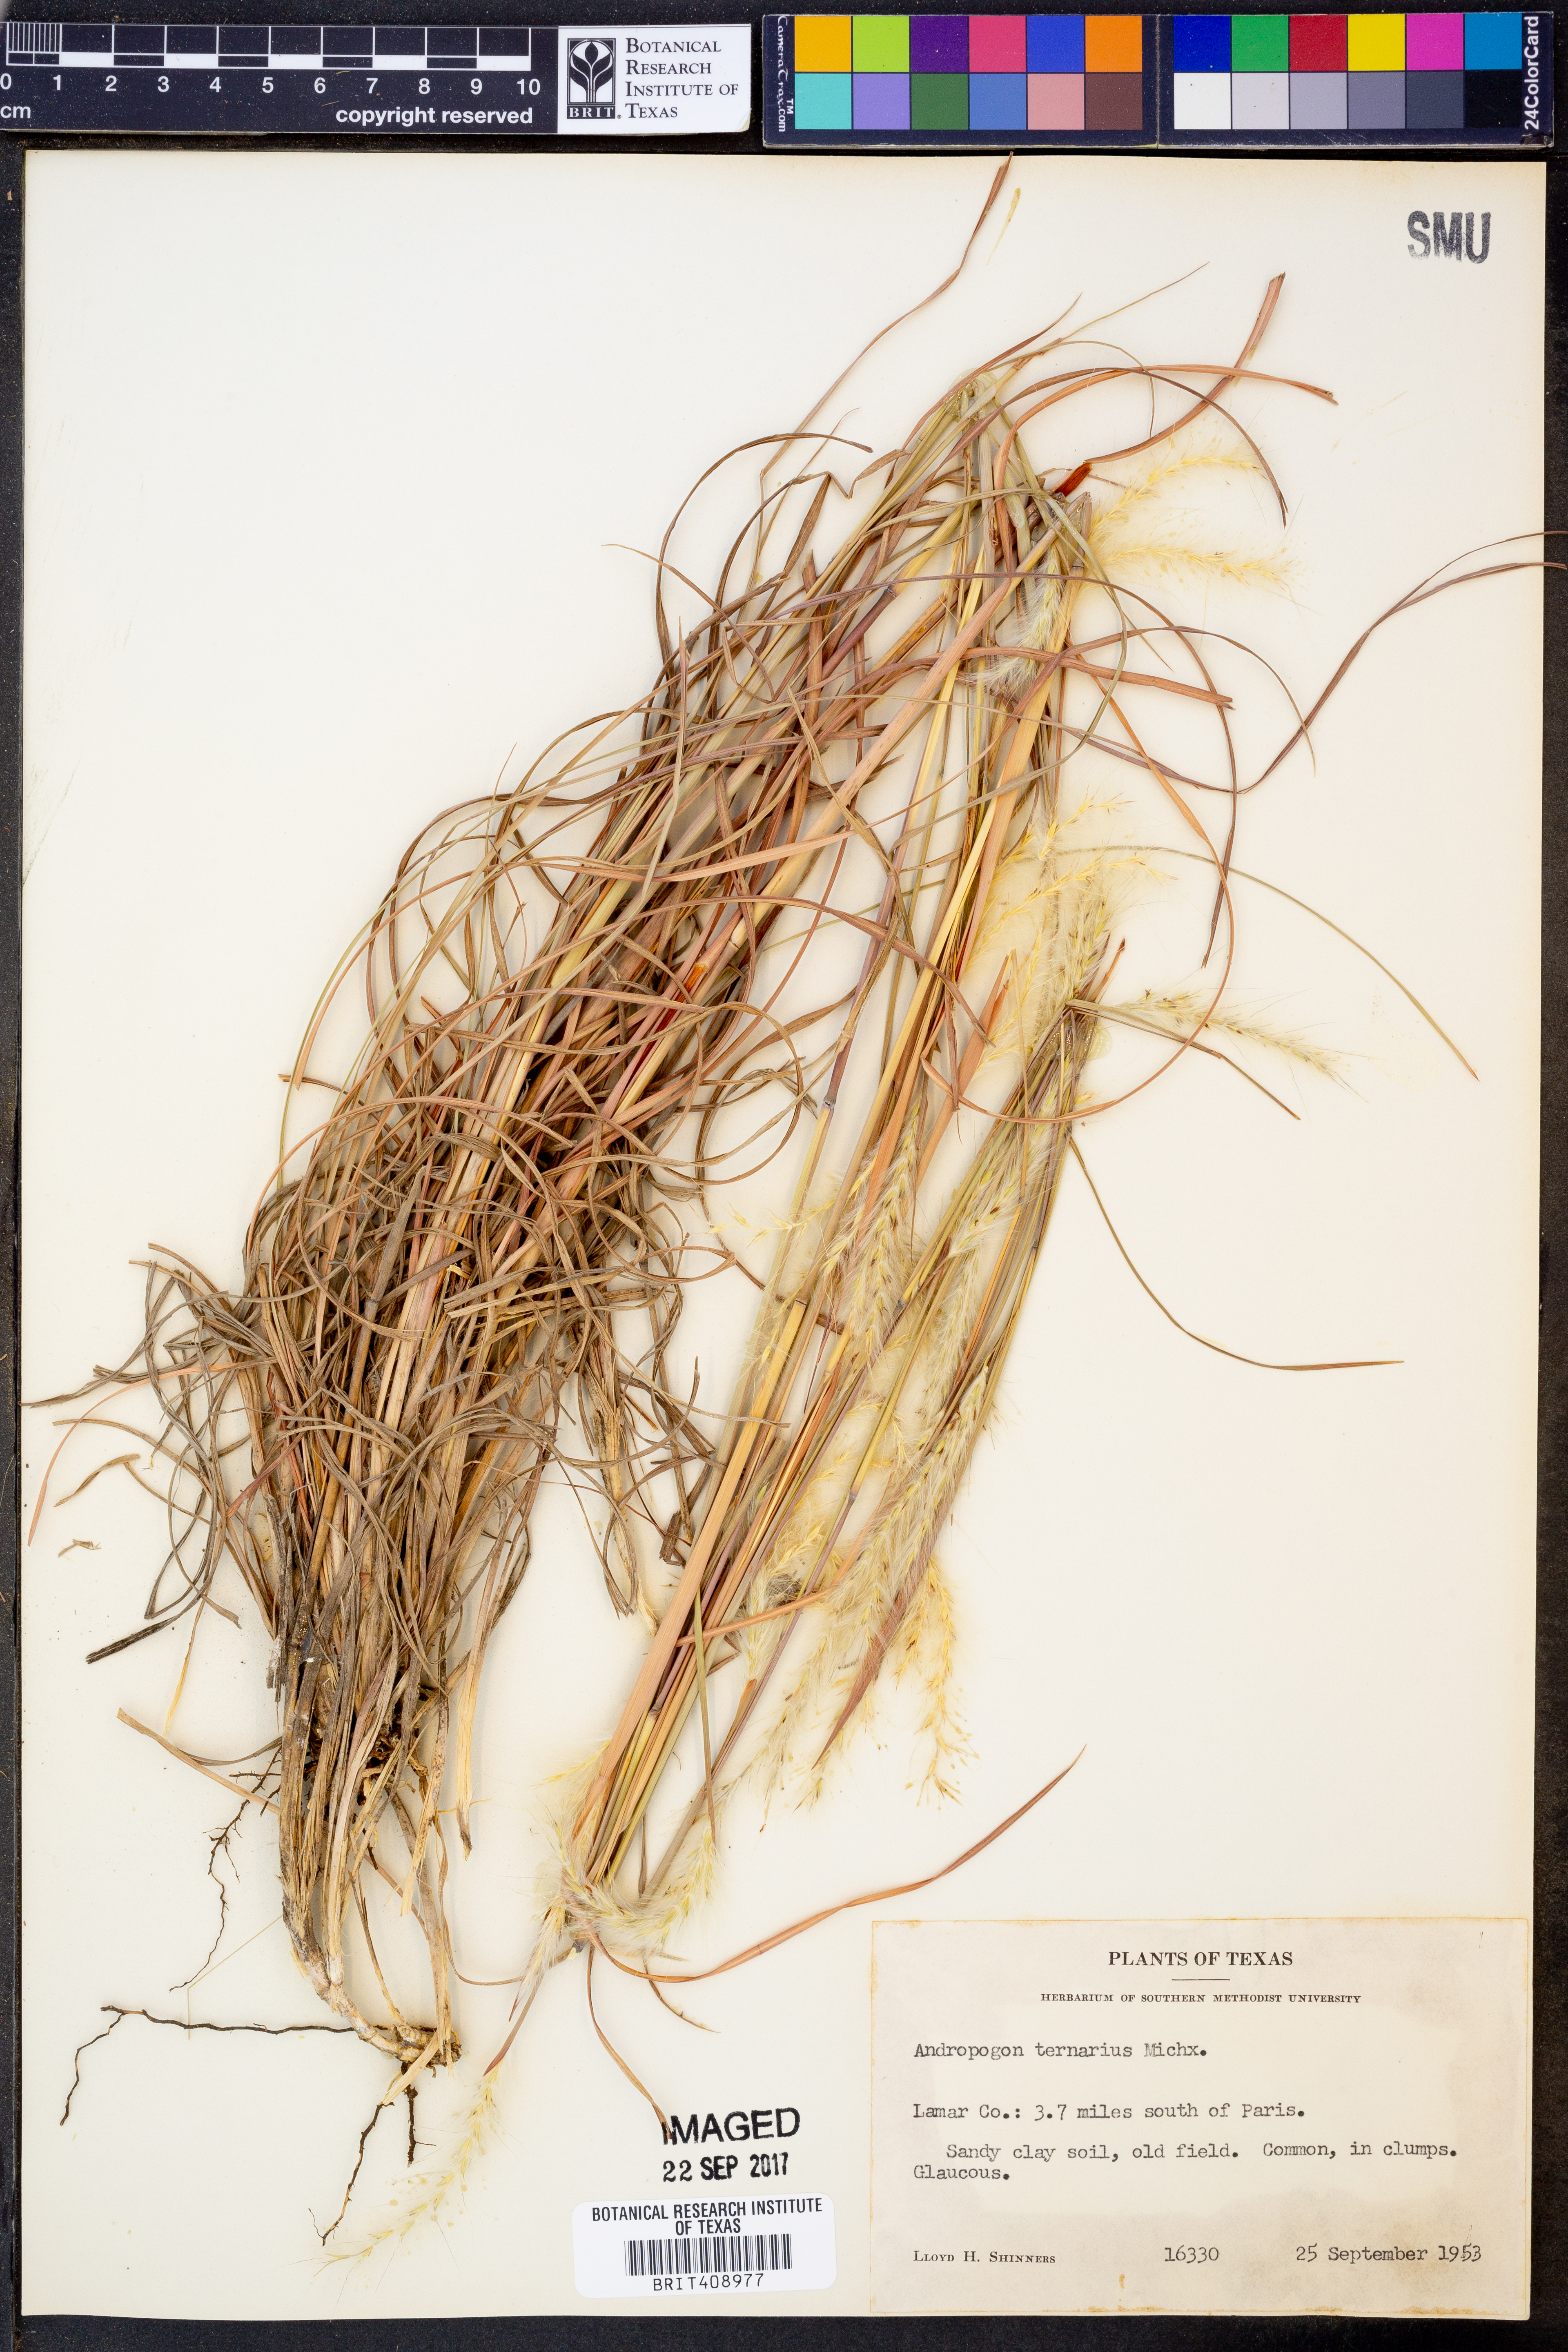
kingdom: Plantae
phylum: Tracheophyta
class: Liliopsida
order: Poales
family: Poaceae
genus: Andropogon
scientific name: Andropogon ternarius
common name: Split bluestem
